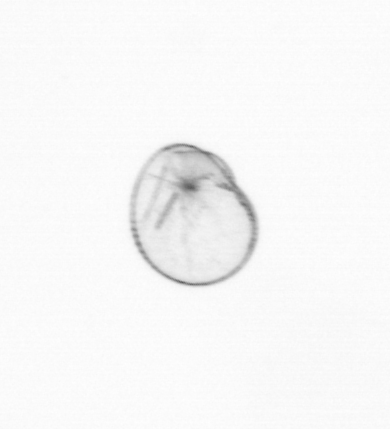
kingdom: Chromista
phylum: Myzozoa
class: Dinophyceae
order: Noctilucales
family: Noctilucaceae
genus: Noctiluca
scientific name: Noctiluca scintillans
